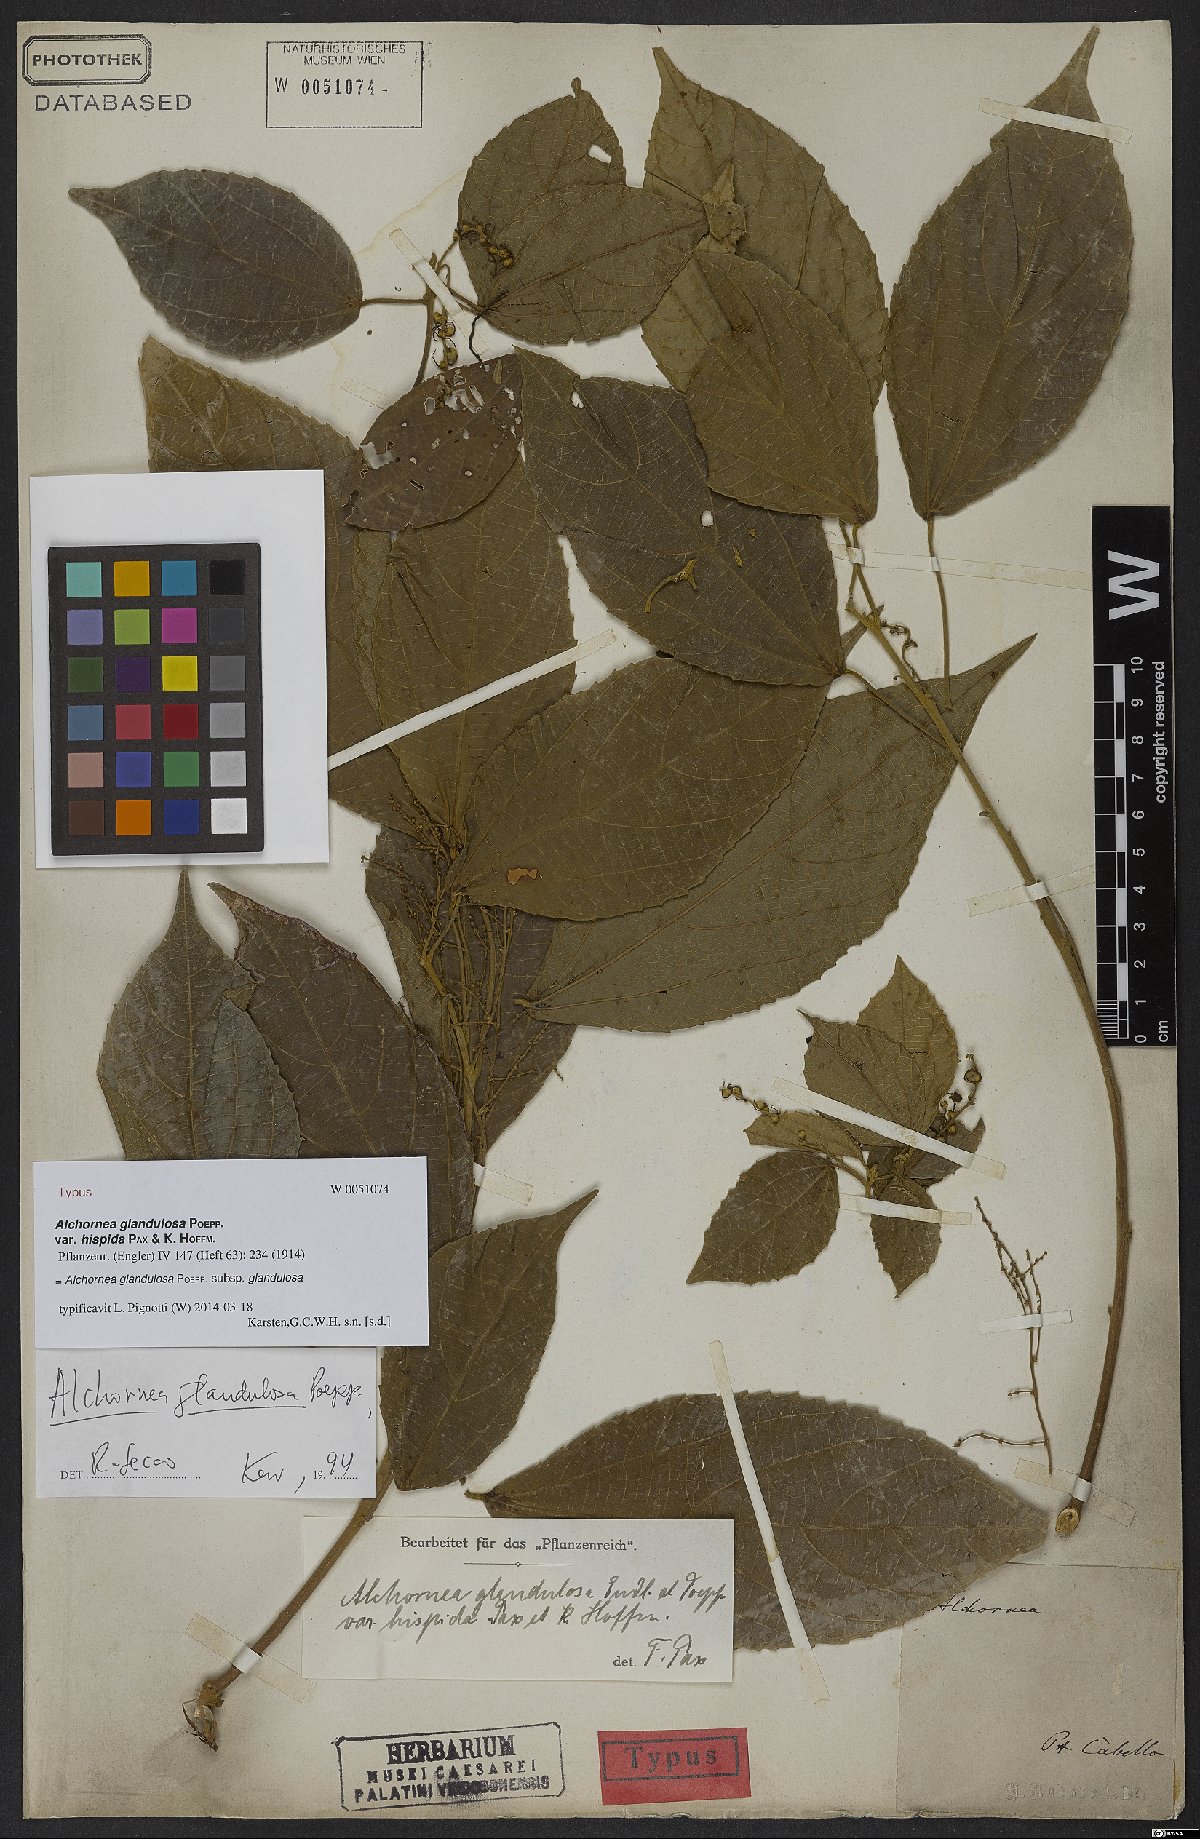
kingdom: Plantae
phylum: Tracheophyta
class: Magnoliopsida
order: Malpighiales
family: Euphorbiaceae
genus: Alchornea
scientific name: Alchornea glandulosa
